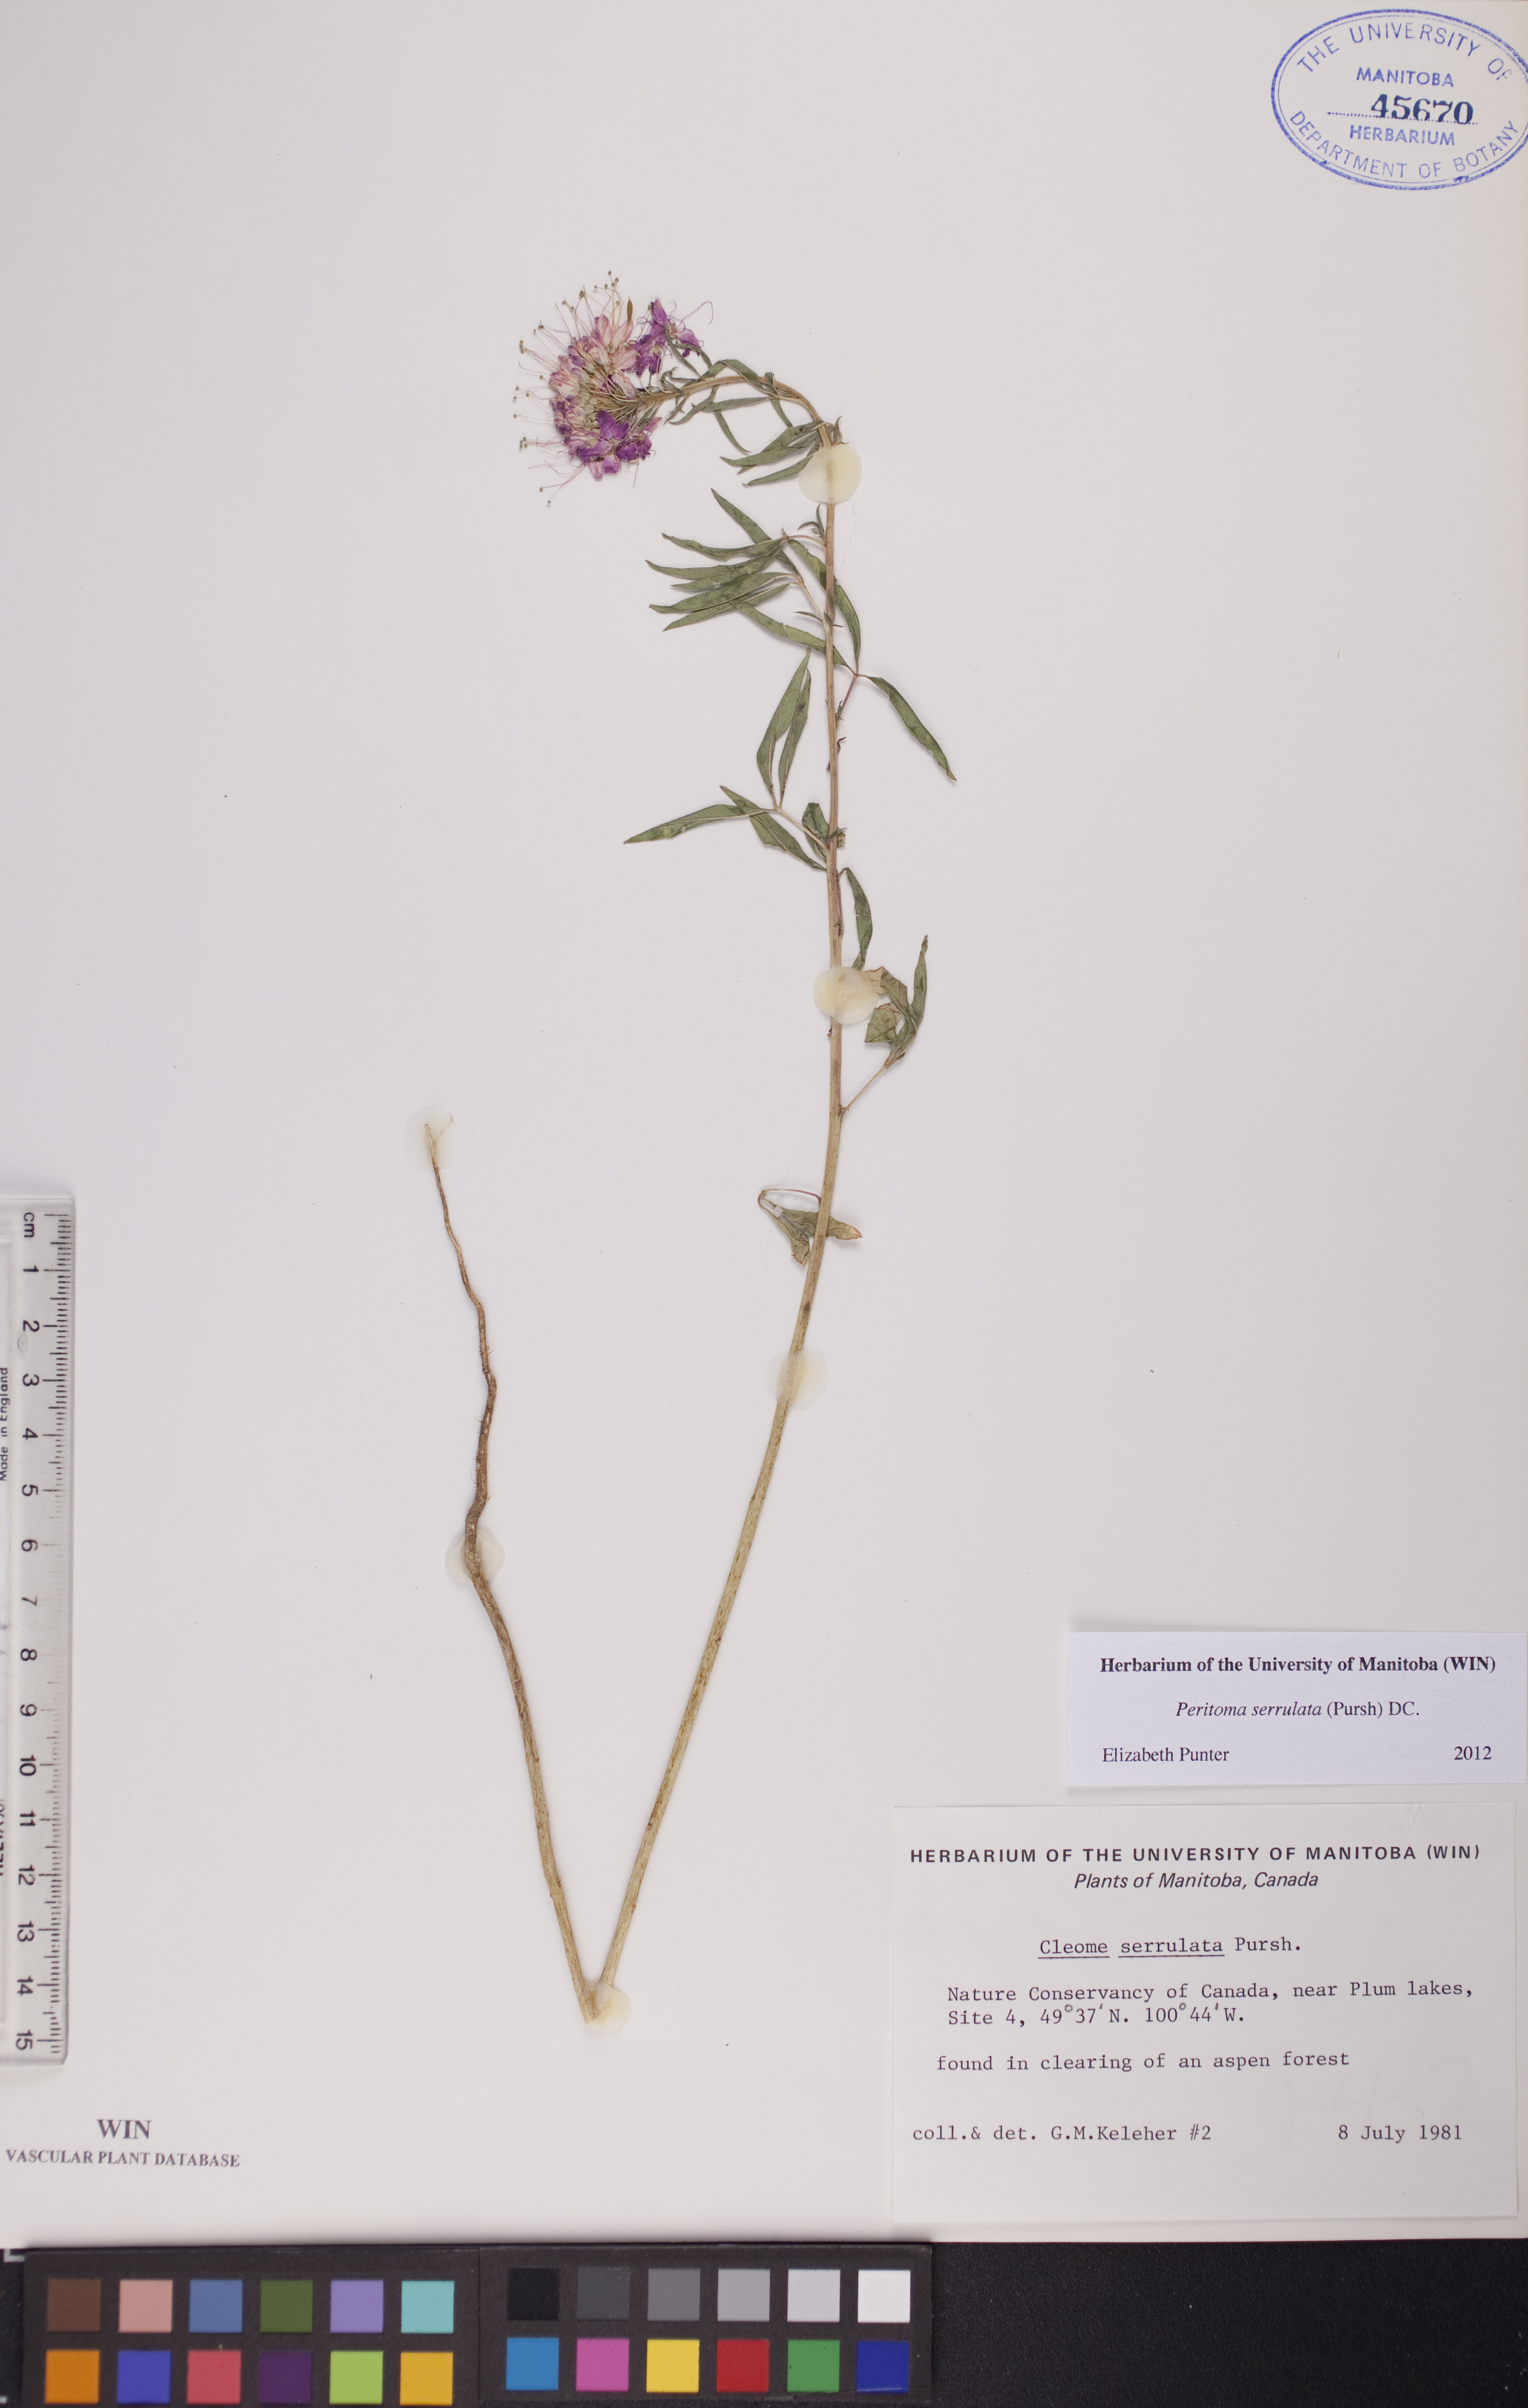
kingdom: Plantae
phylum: Tracheophyta
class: Magnoliopsida
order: Brassicales
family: Cleomaceae
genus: Cleomella
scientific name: Cleomella serrulata
